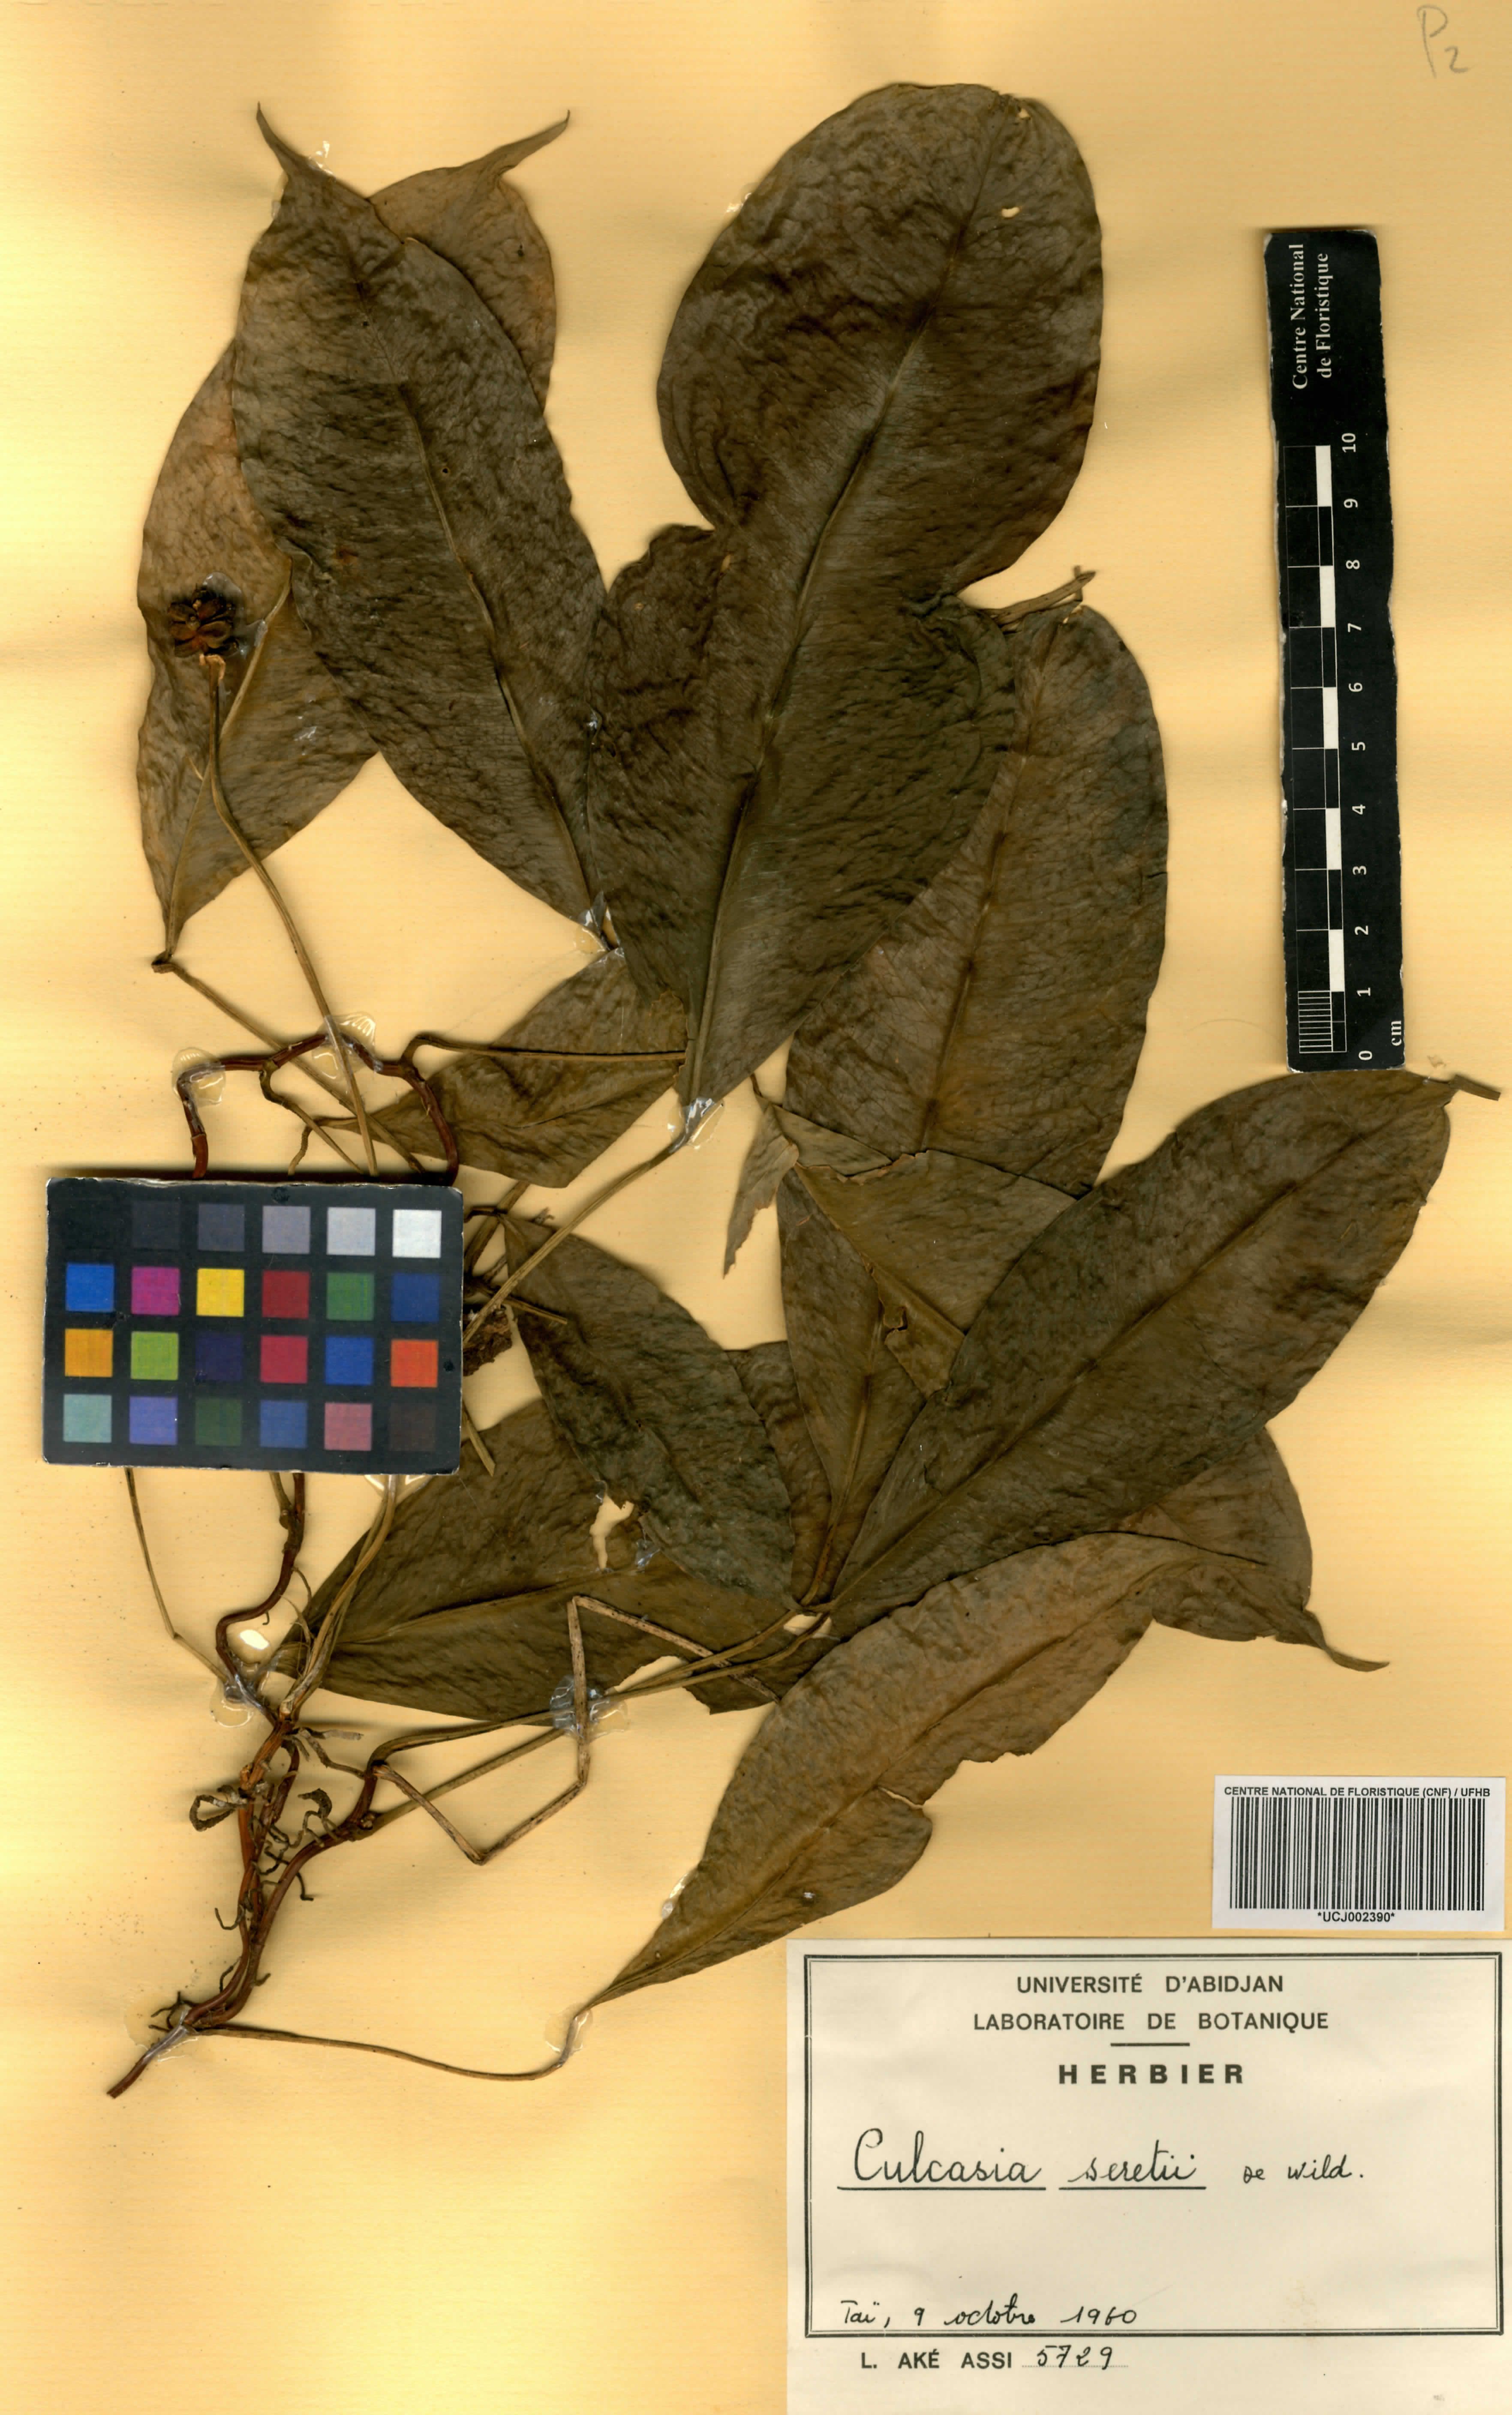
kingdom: Plantae
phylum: Tracheophyta
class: Liliopsida
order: Alismatales
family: Araceae
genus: Culcasia
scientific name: Culcasia seretii
